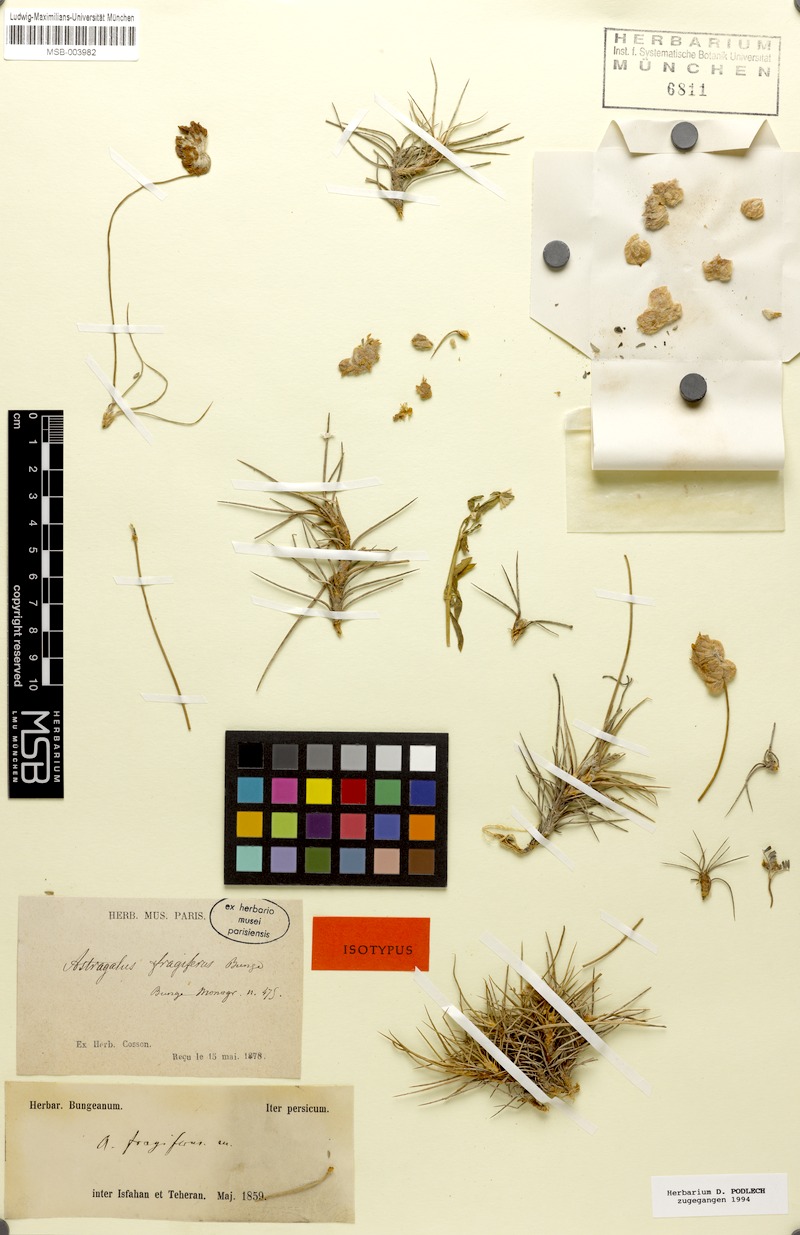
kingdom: Plantae
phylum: Tracheophyta
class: Magnoliopsida
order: Fabales
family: Fabaceae
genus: Astragalus
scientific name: Astragalus fragiferus
